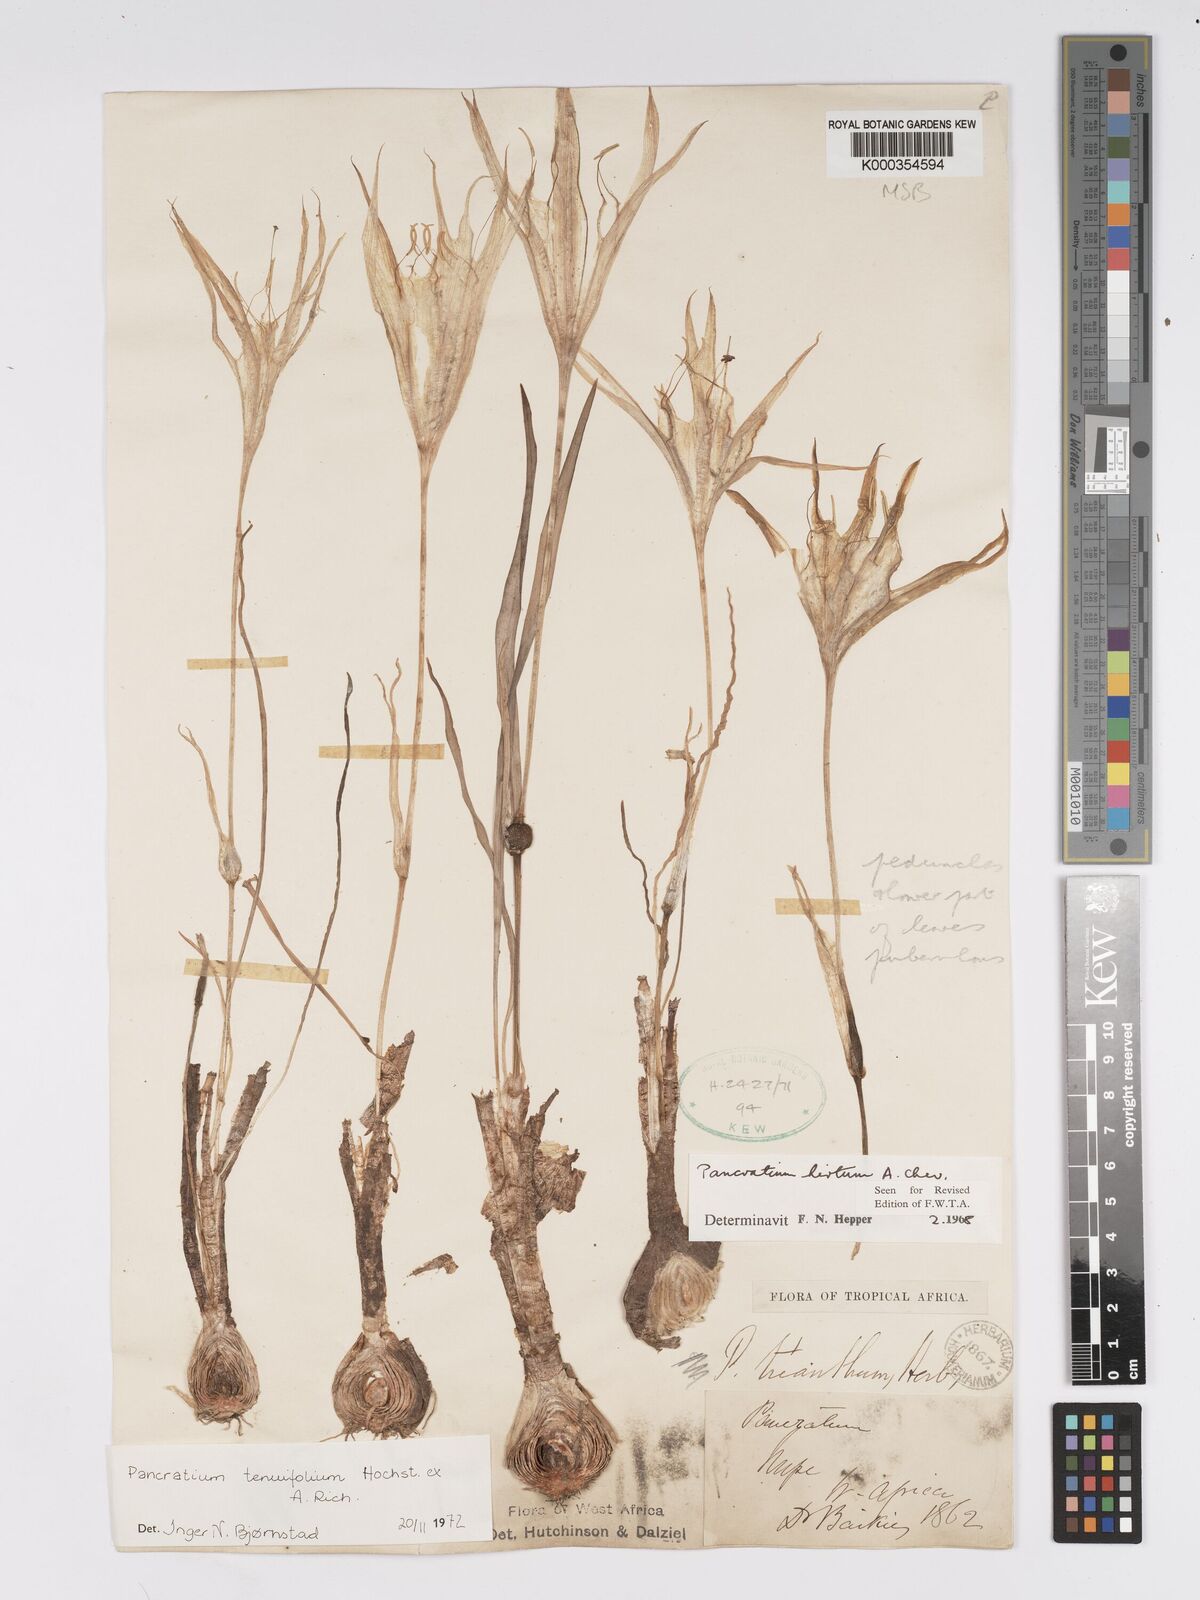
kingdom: Plantae
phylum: Tracheophyta
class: Liliopsida
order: Asparagales
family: Amaryllidaceae
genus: Pancratium
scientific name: Pancratium tenuifolium
